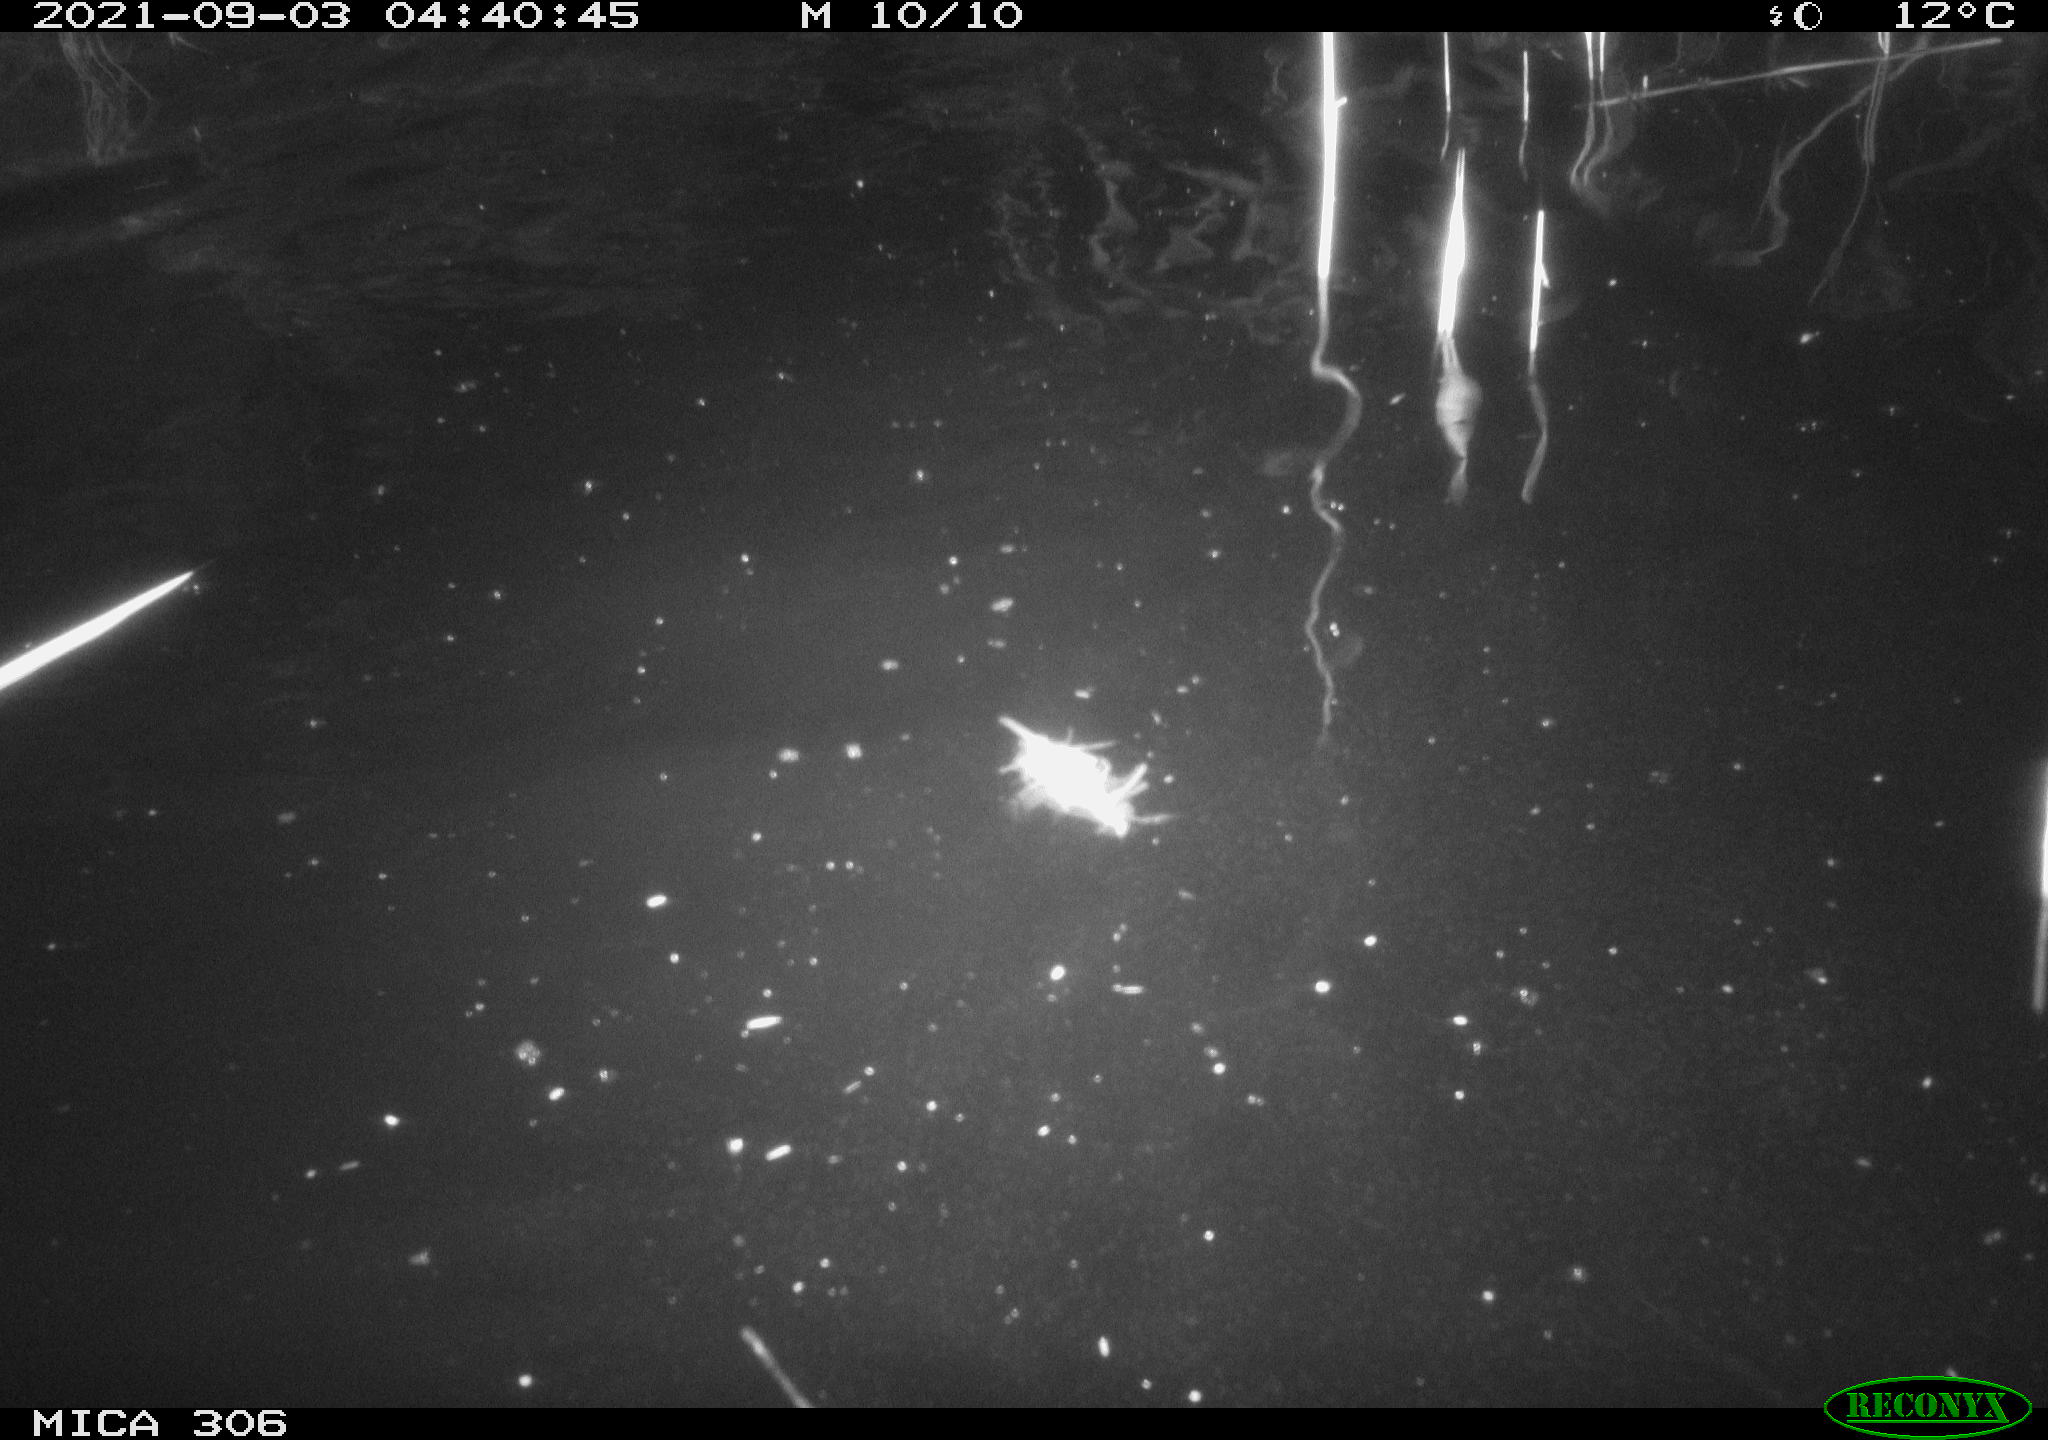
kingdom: Animalia
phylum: Chordata
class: Mammalia
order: Rodentia
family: Cricetidae
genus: Ondatra
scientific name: Ondatra zibethicus
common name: Muskrat
